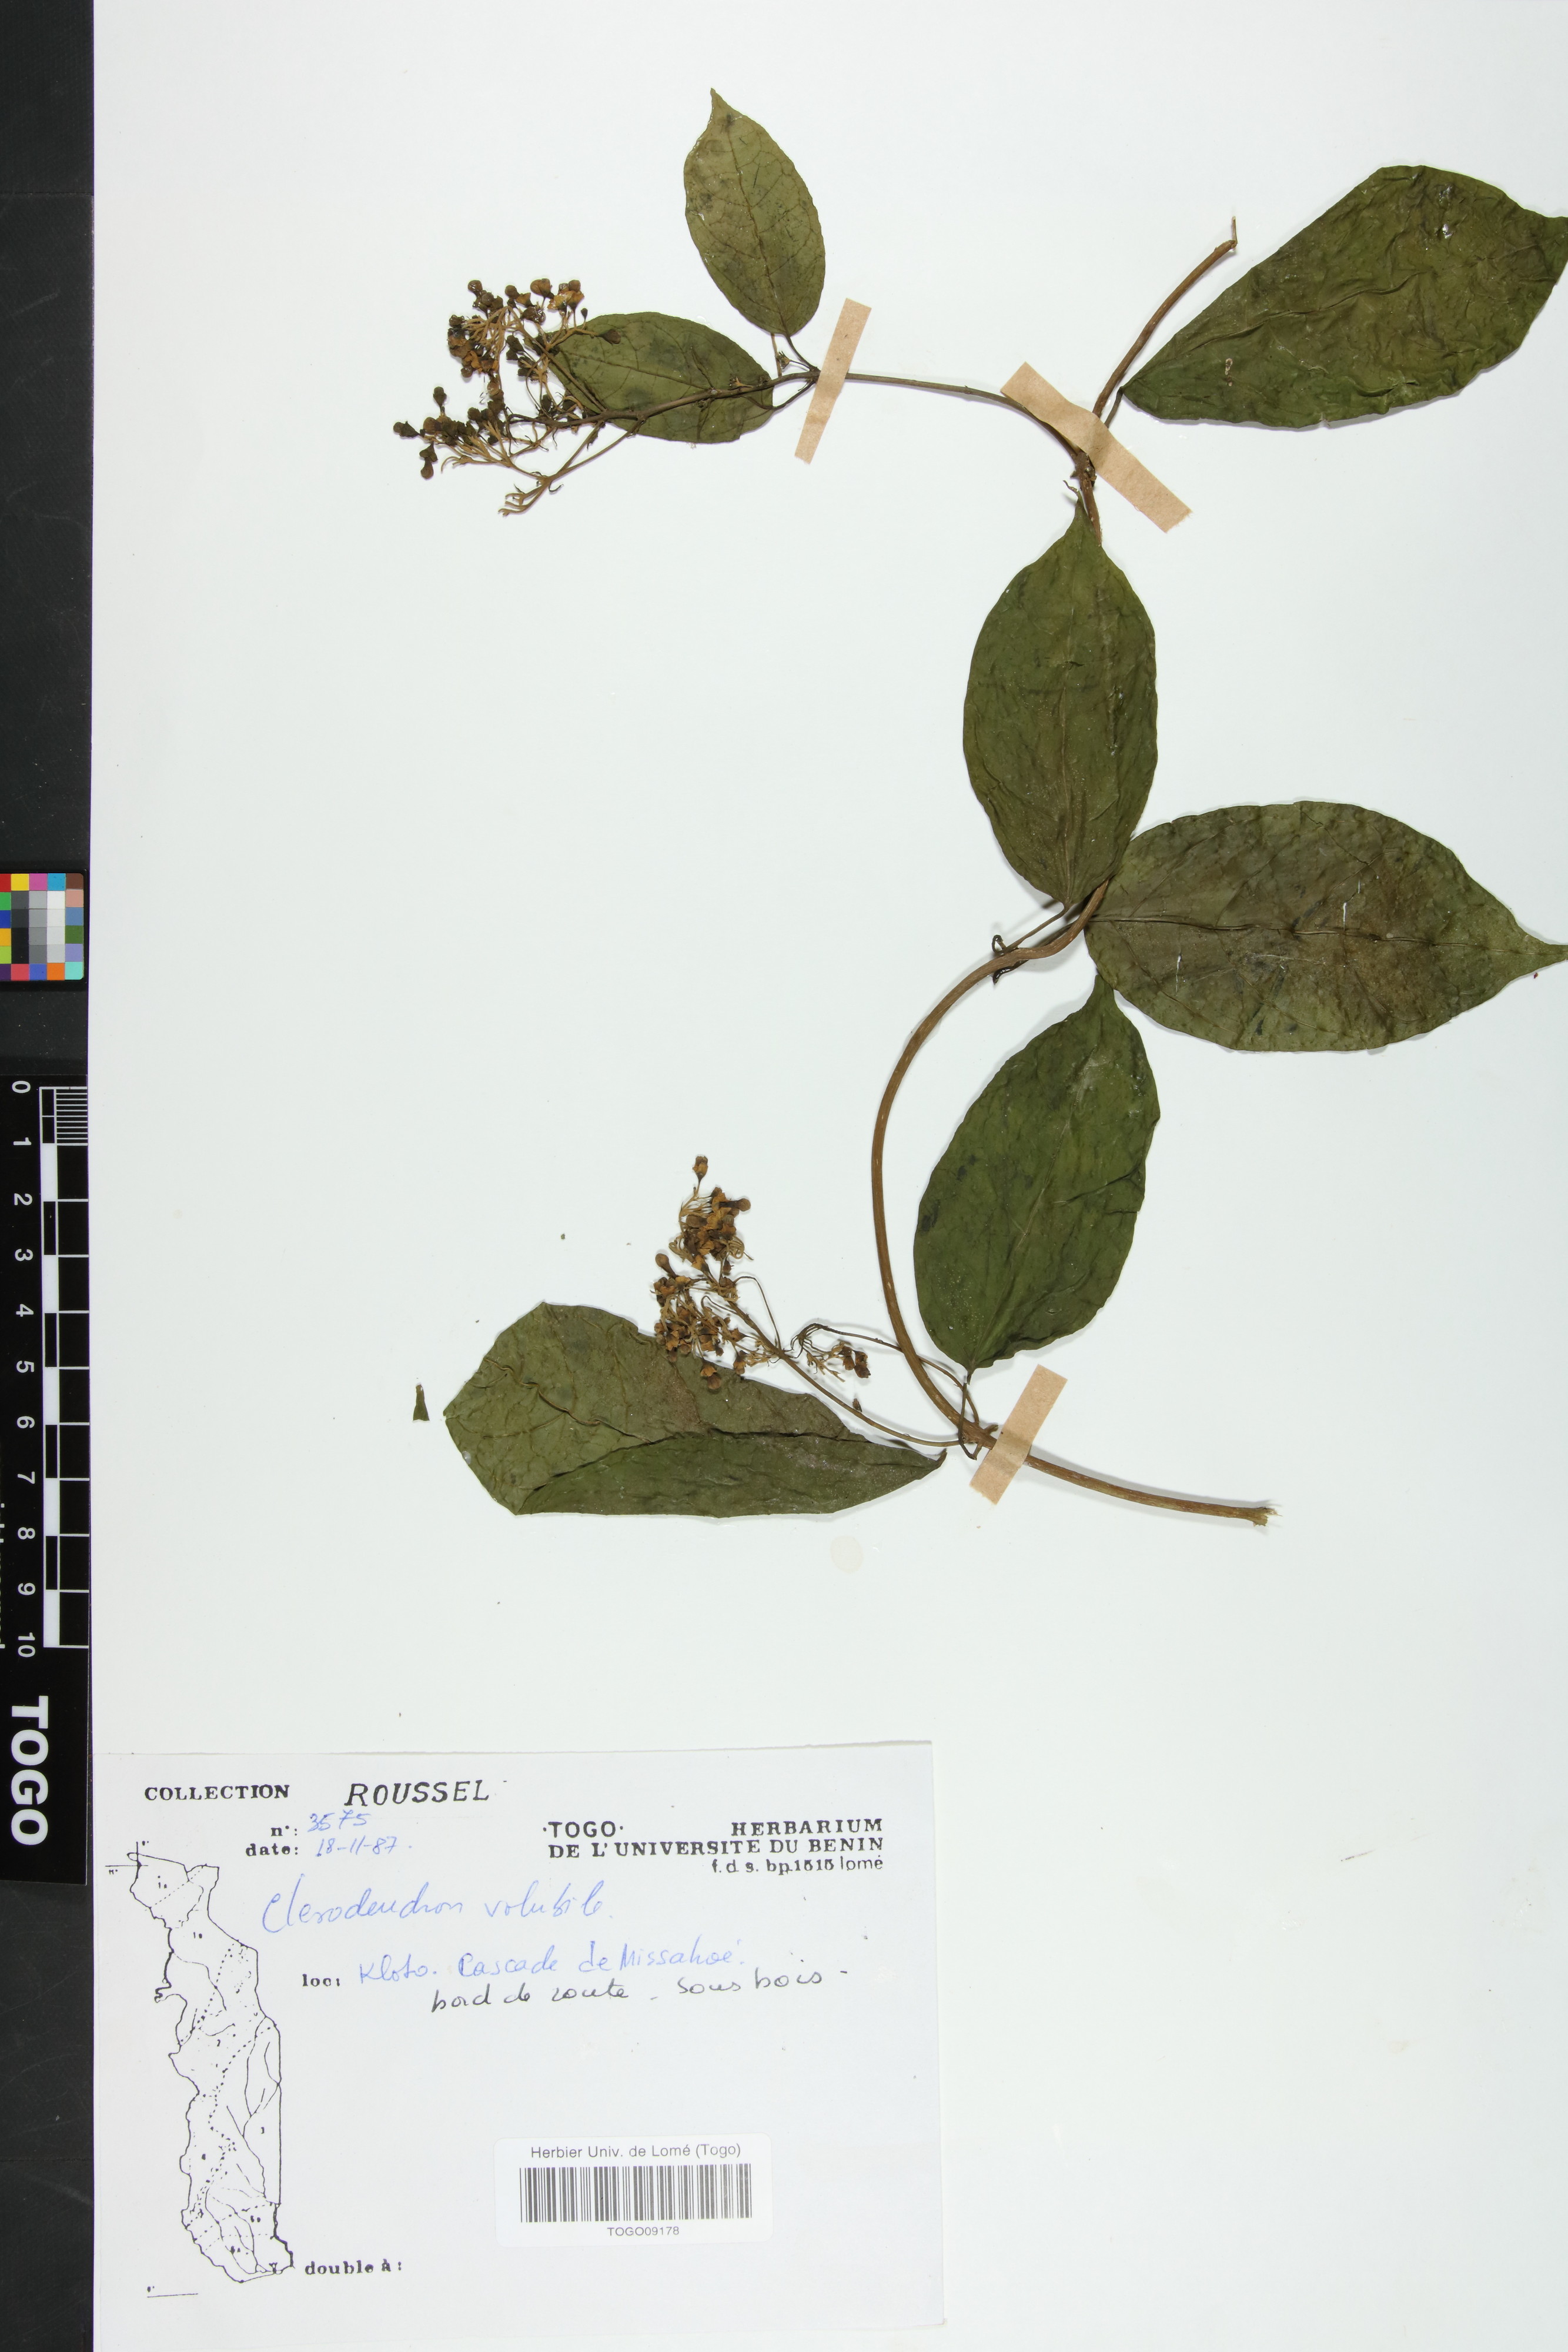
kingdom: Plantae
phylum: Tracheophyta
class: Magnoliopsida
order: Lamiales
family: Lamiaceae
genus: Clerodendrum
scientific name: Clerodendrum volubile
